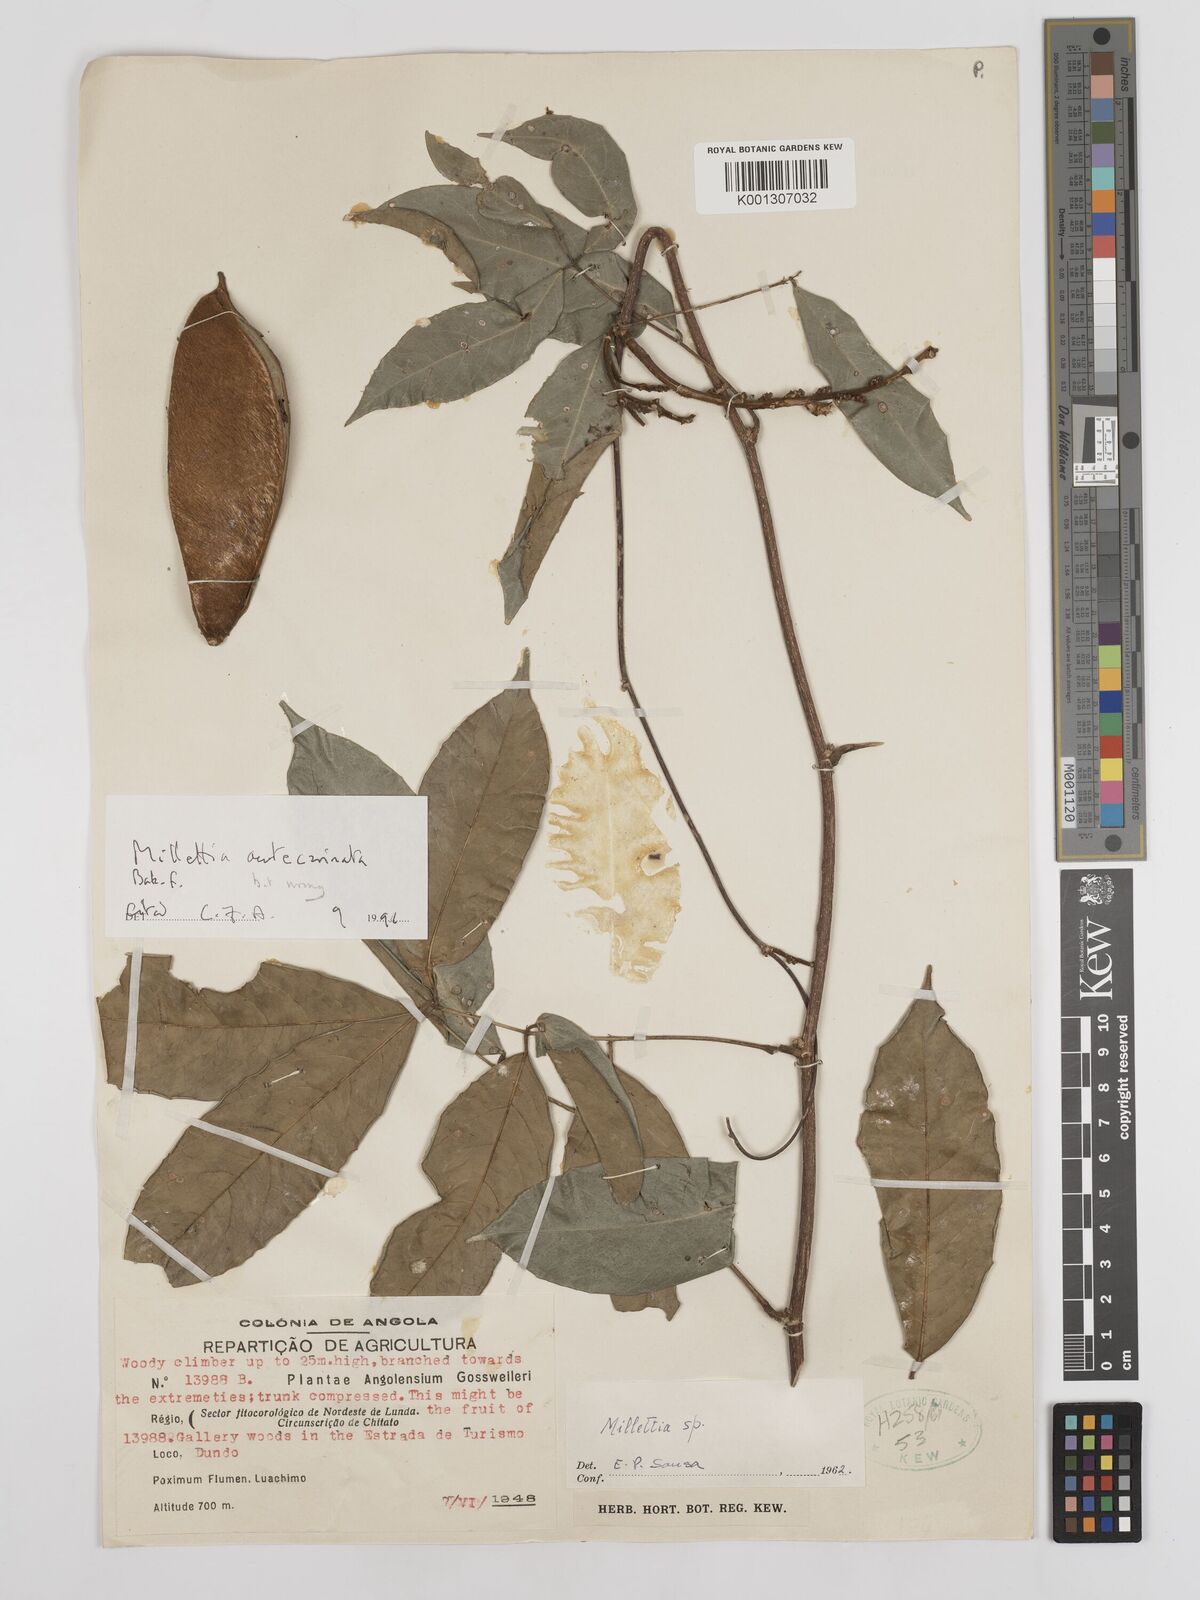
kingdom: Plantae
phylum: Tracheophyta
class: Magnoliopsida
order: Fabales
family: Fabaceae
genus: Millettia
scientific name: Millettia
